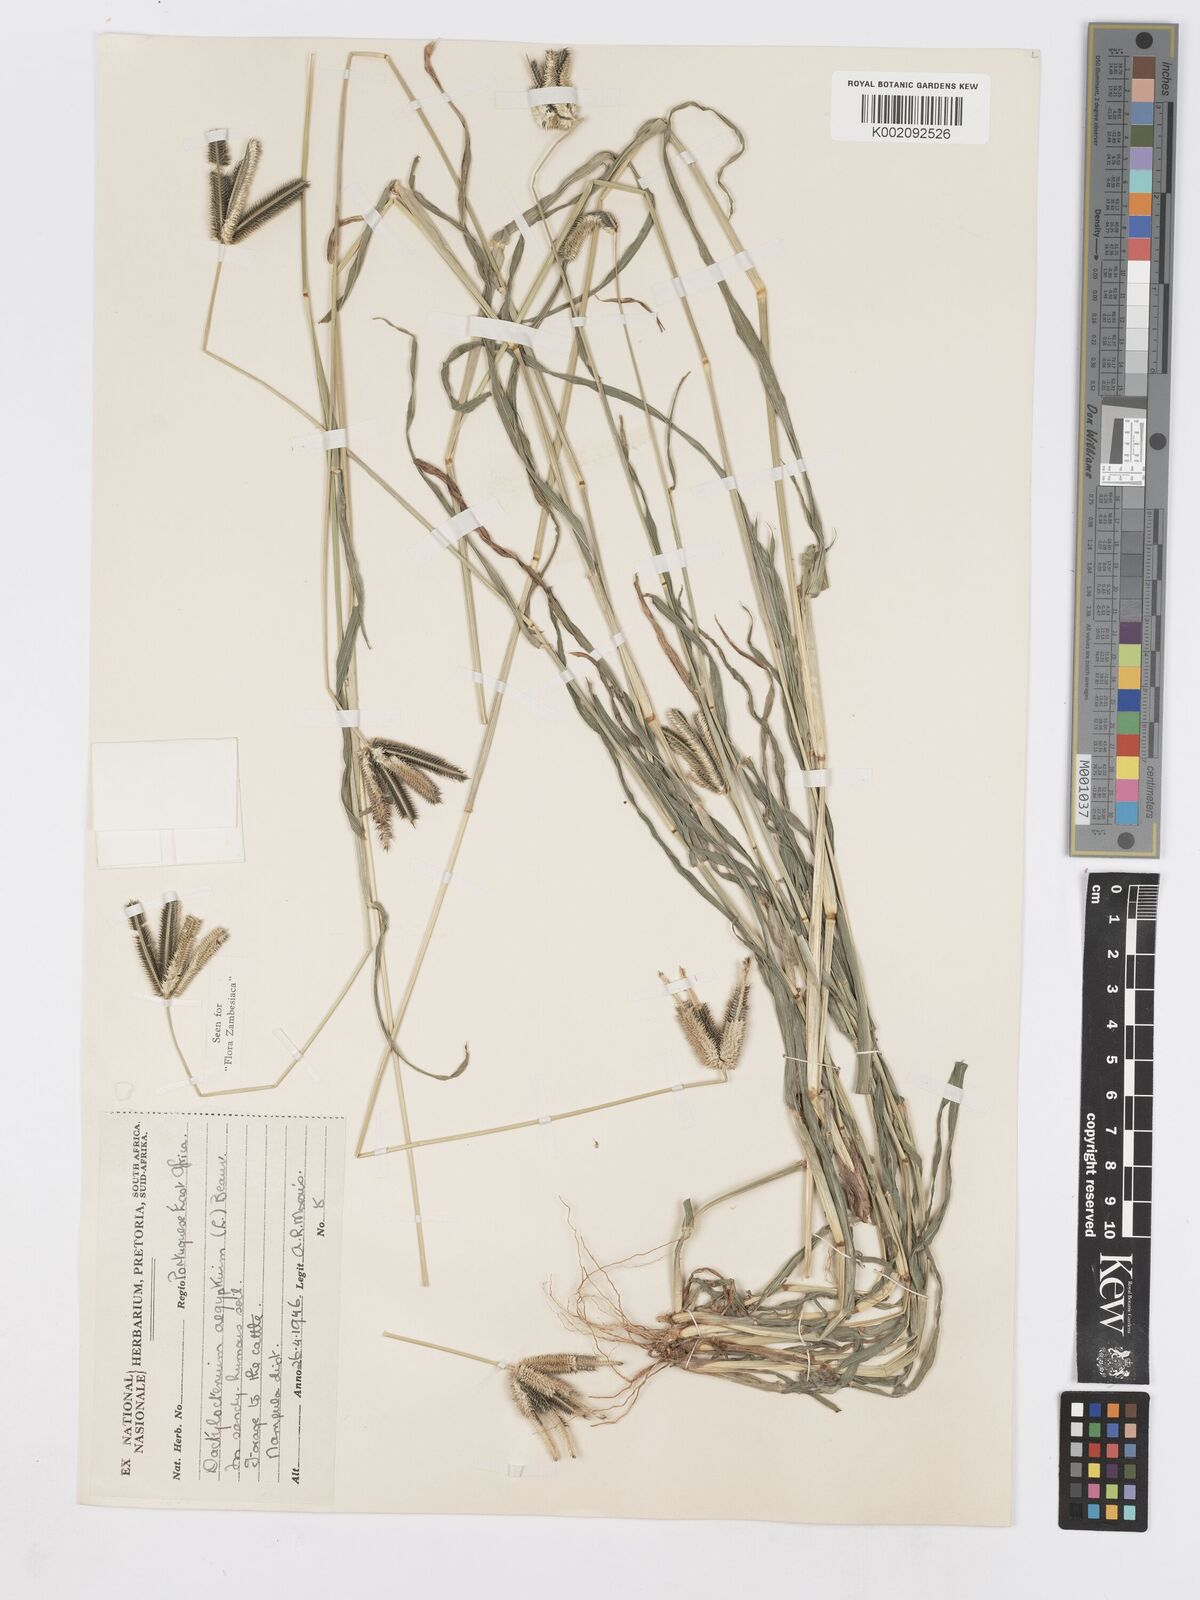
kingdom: Plantae
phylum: Tracheophyta
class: Liliopsida
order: Poales
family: Poaceae
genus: Dactyloctenium
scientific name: Dactyloctenium aegyptium
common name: Egyptian grass
